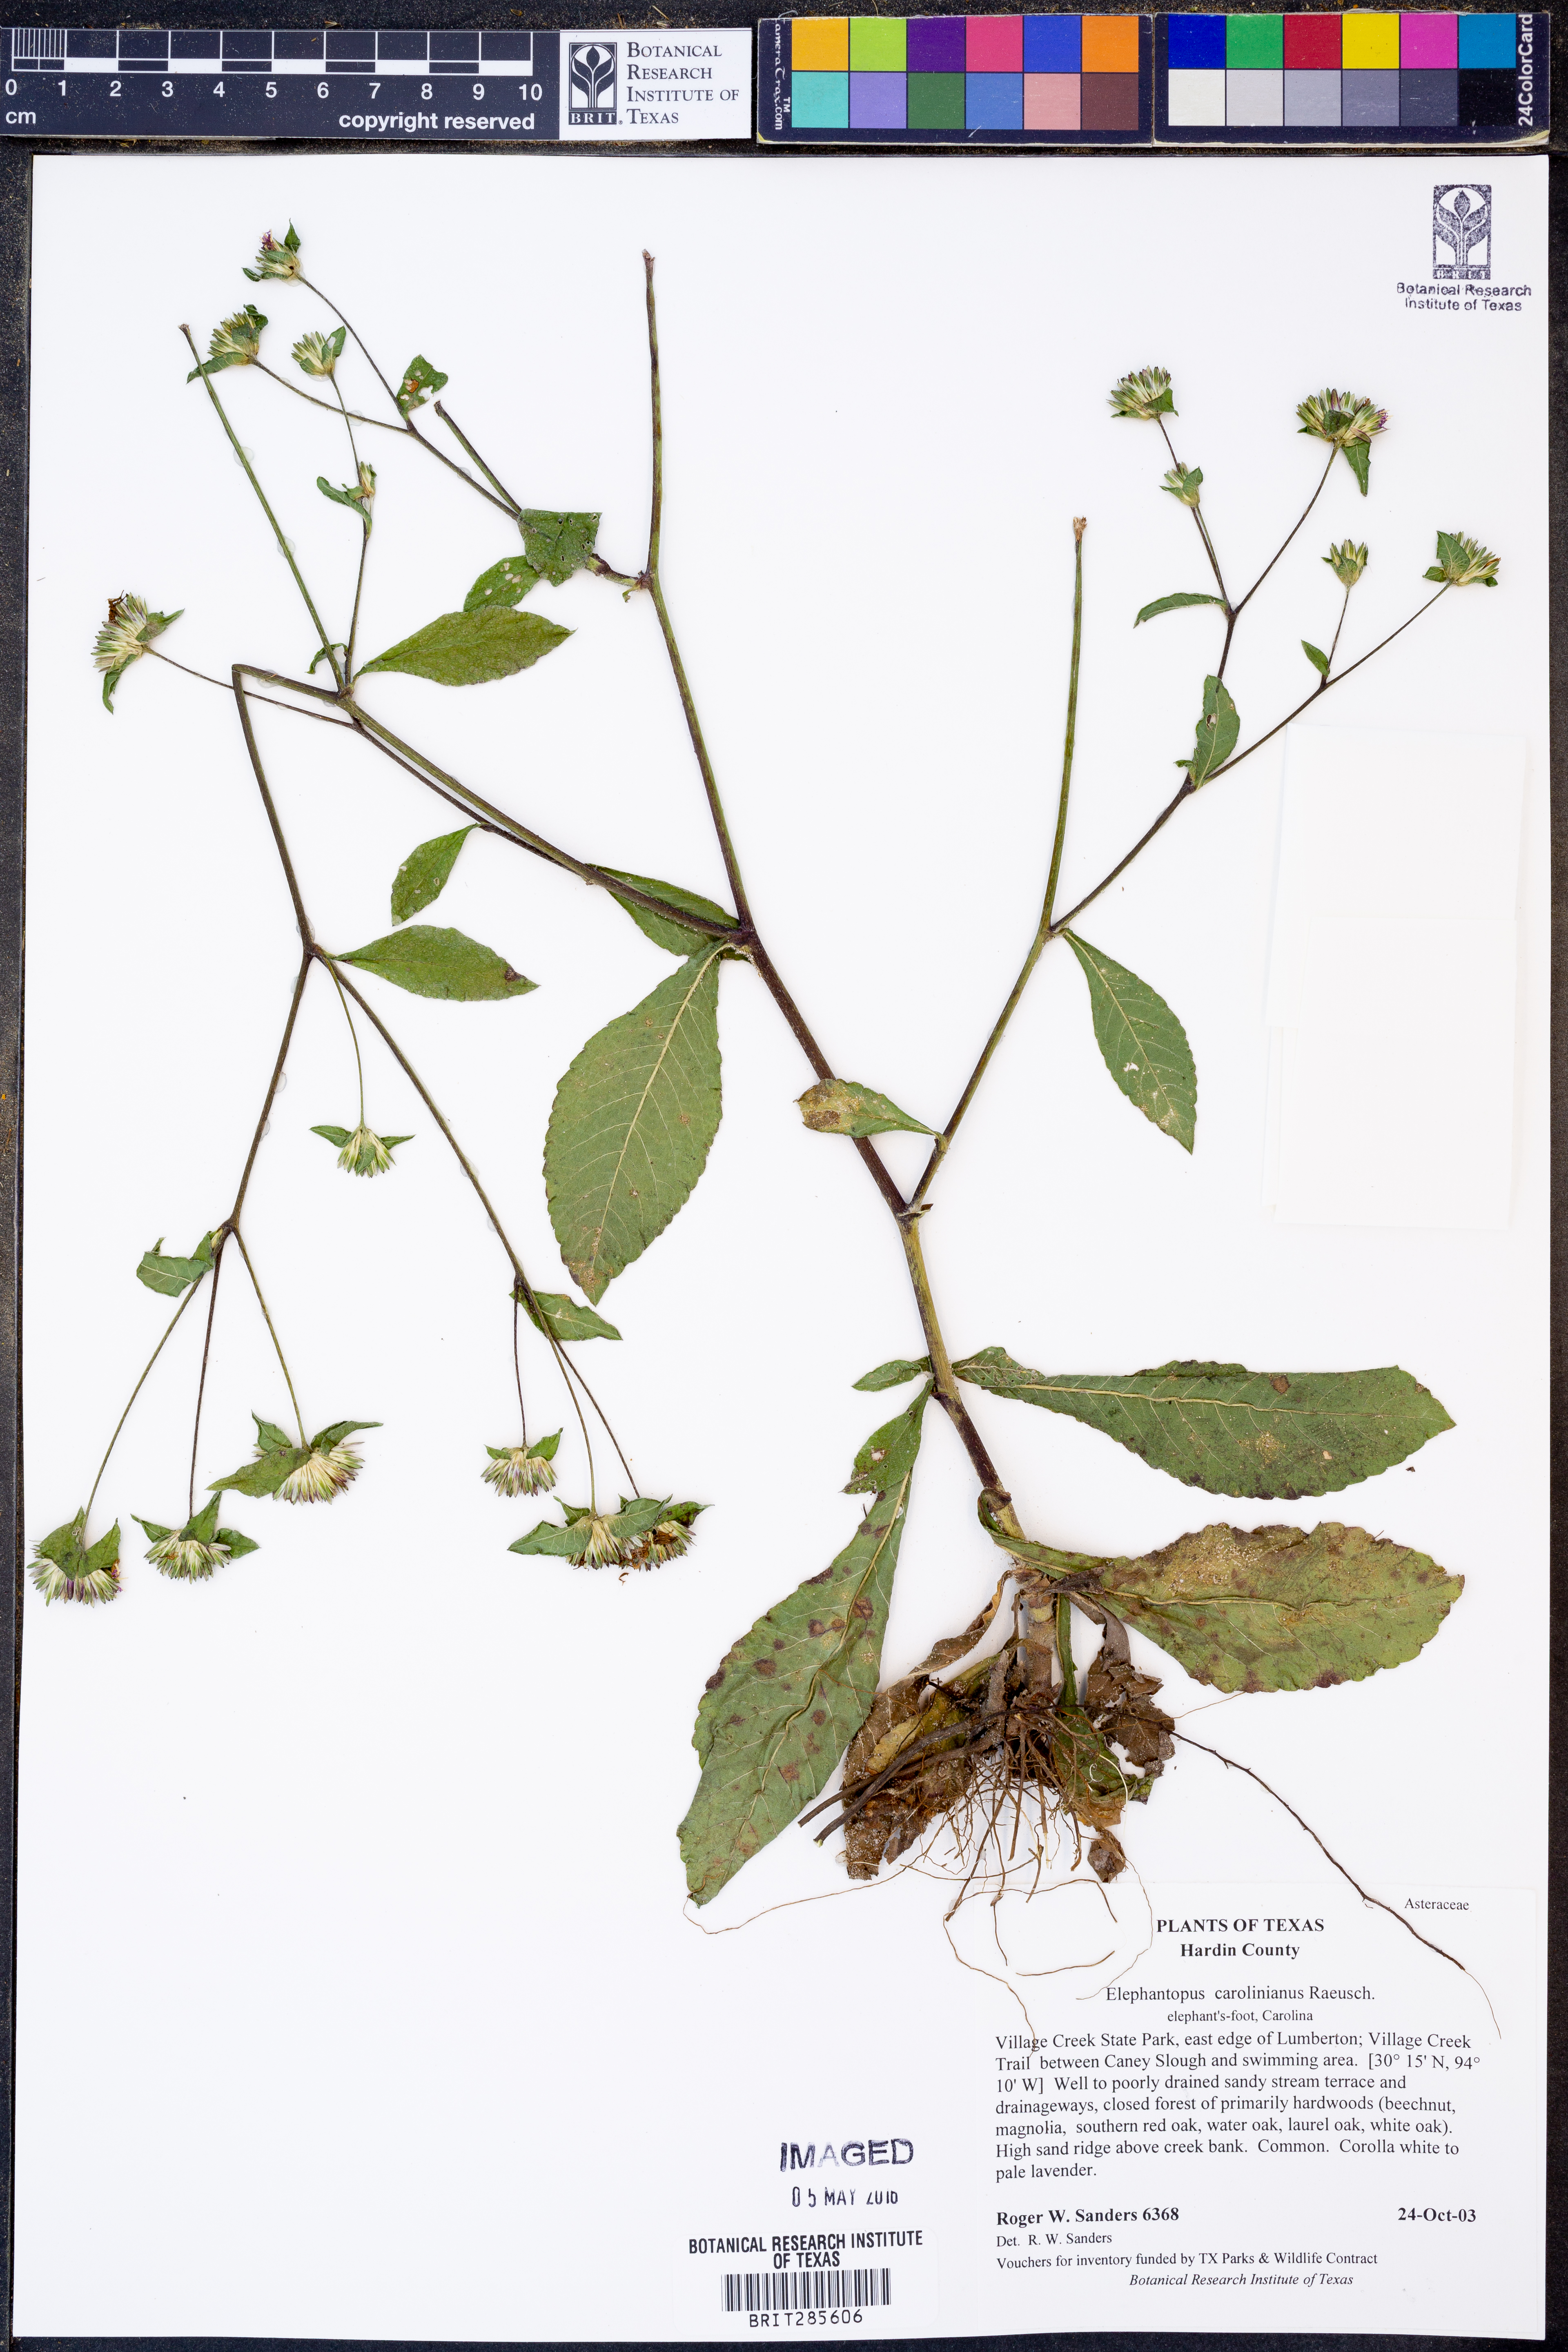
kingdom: Plantae
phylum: Tracheophyta
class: Magnoliopsida
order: Asterales
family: Asteraceae
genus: Elephantopus
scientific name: Elephantopus carolinianus
